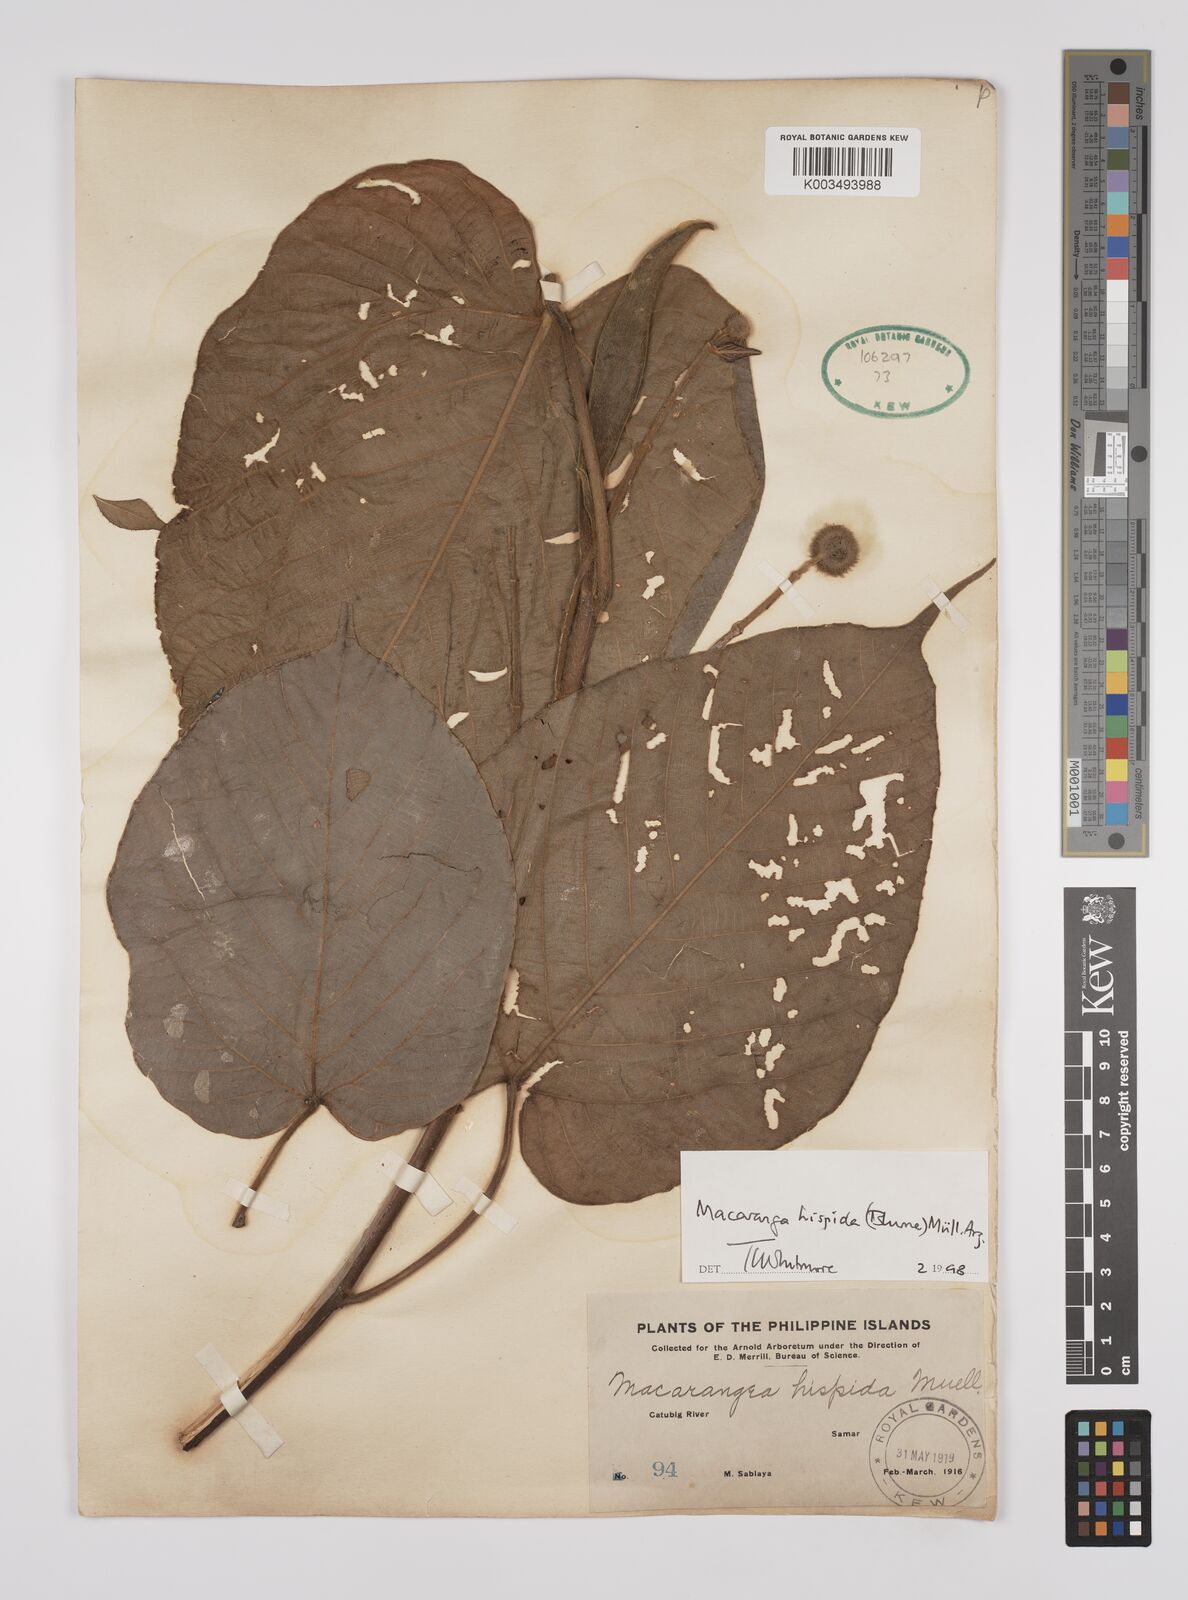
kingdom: Plantae
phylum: Tracheophyta
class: Magnoliopsida
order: Malpighiales
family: Euphorbiaceae
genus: Macaranga
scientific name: Macaranga hispida
